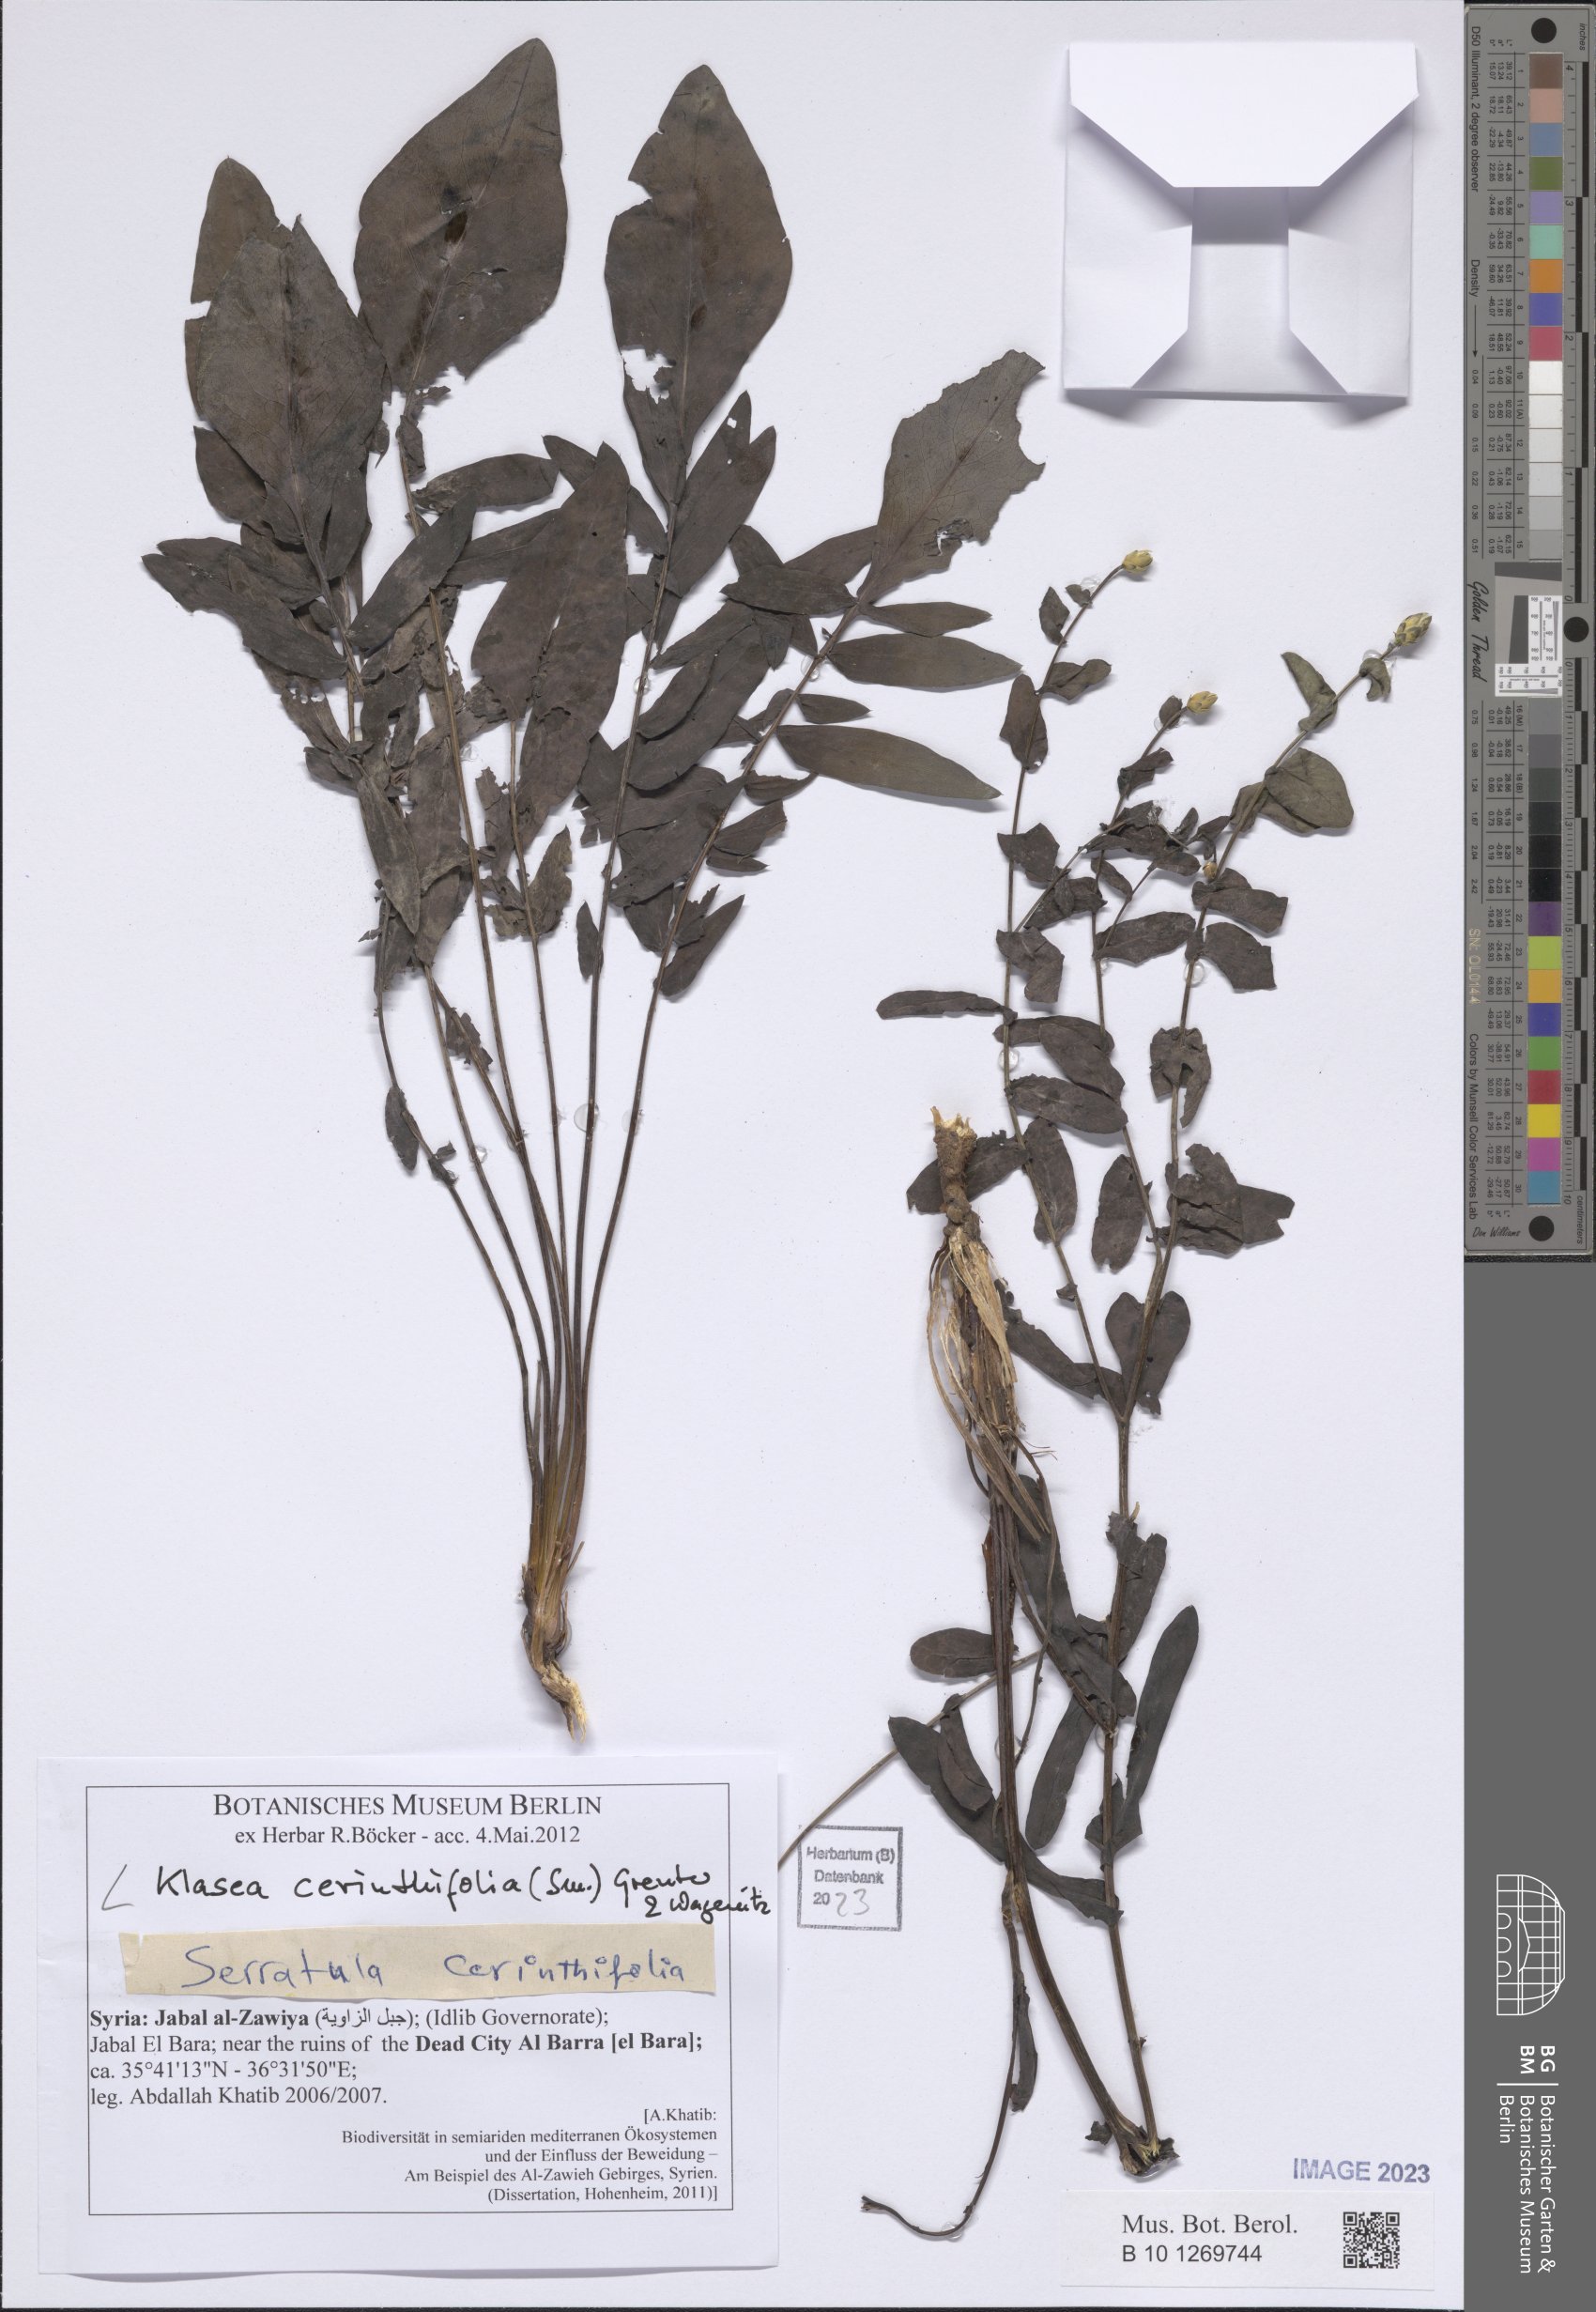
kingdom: Plantae
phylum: Tracheophyta
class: Magnoliopsida
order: Asterales
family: Asteraceae
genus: Klasea
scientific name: Klasea cerinthifolia
